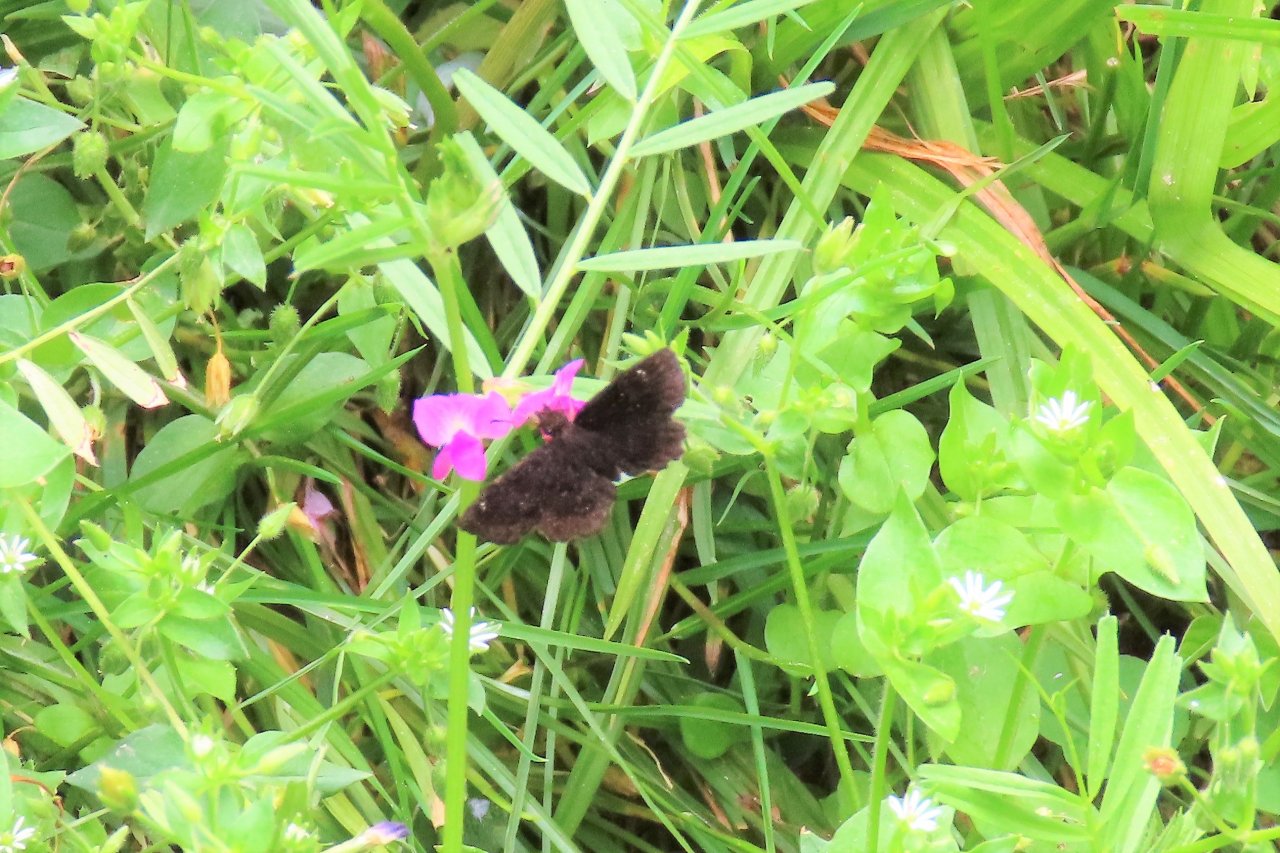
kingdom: Animalia
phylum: Arthropoda
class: Insecta
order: Lepidoptera
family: Hesperiidae
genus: Staphylus
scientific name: Staphylus mazans
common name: Hayhurst's Scallopwing
